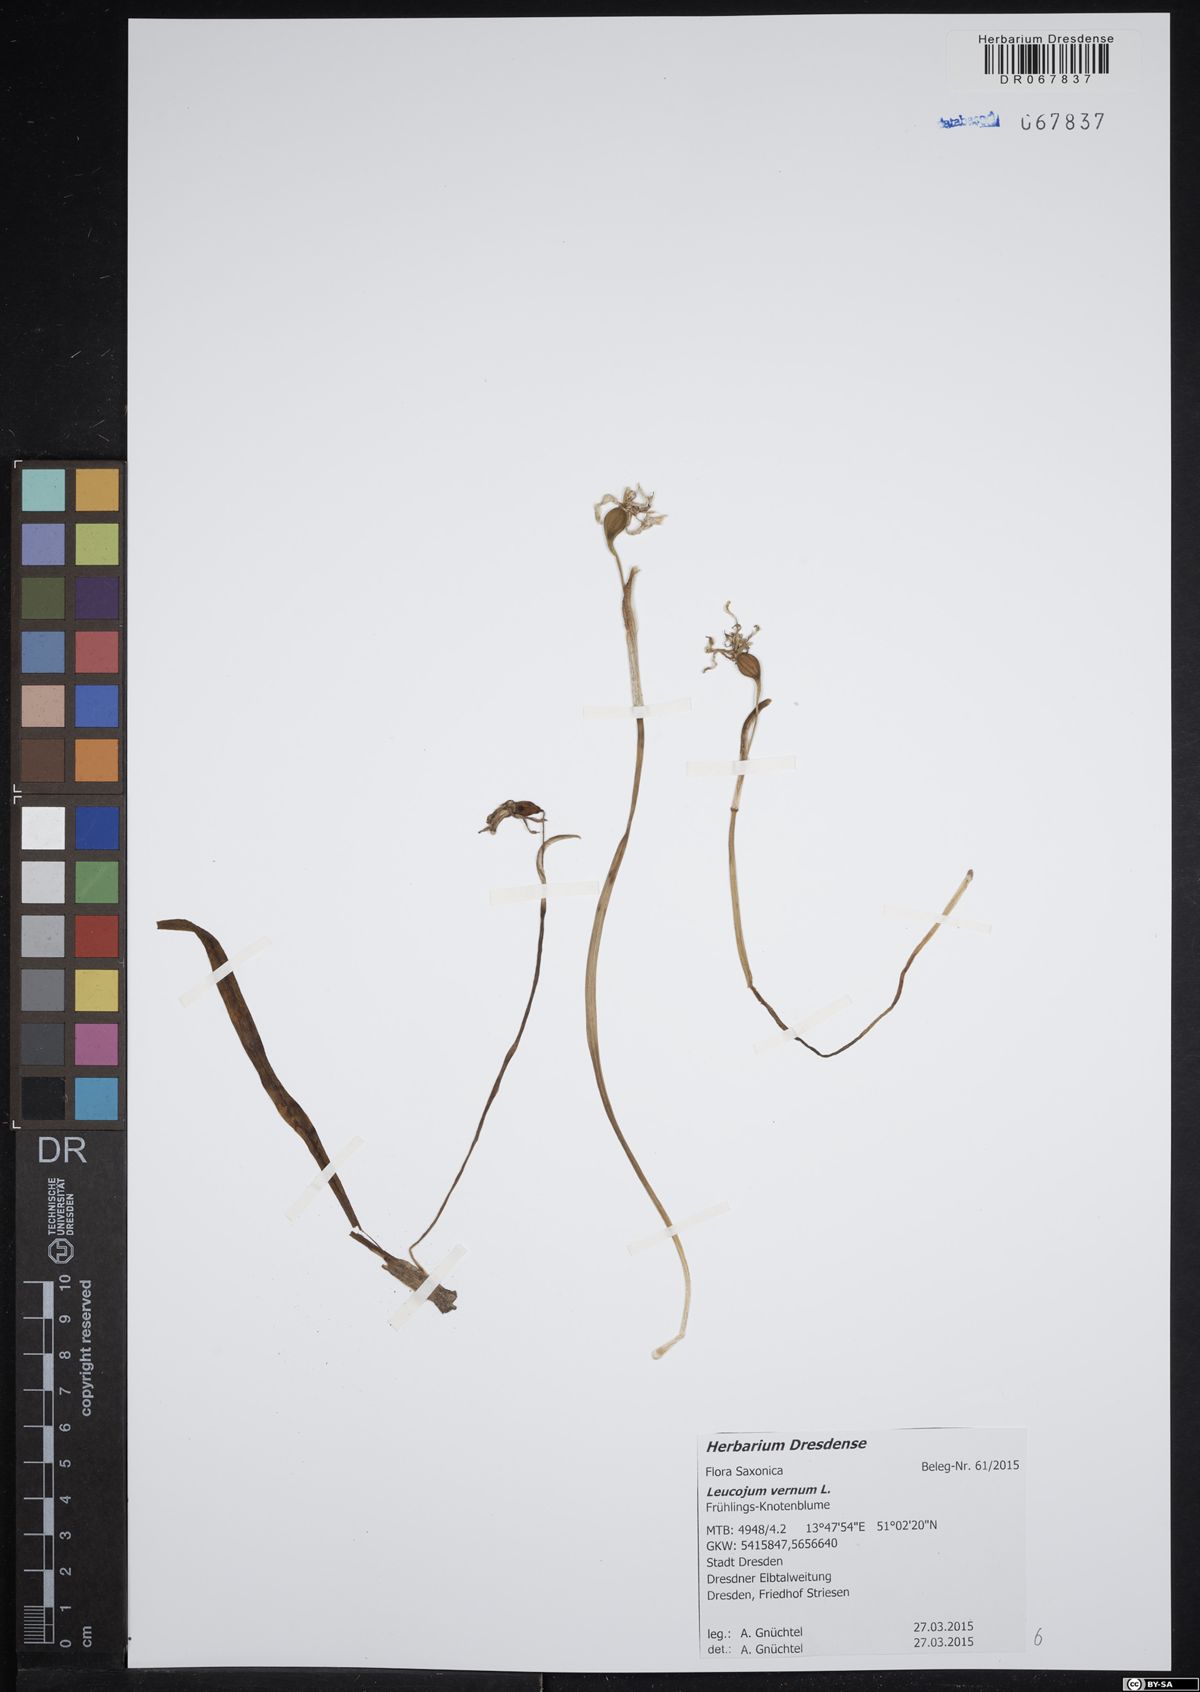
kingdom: Plantae
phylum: Tracheophyta
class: Liliopsida
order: Asparagales
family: Amaryllidaceae
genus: Leucojum
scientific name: Leucojum vernum
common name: Spring snowflake
